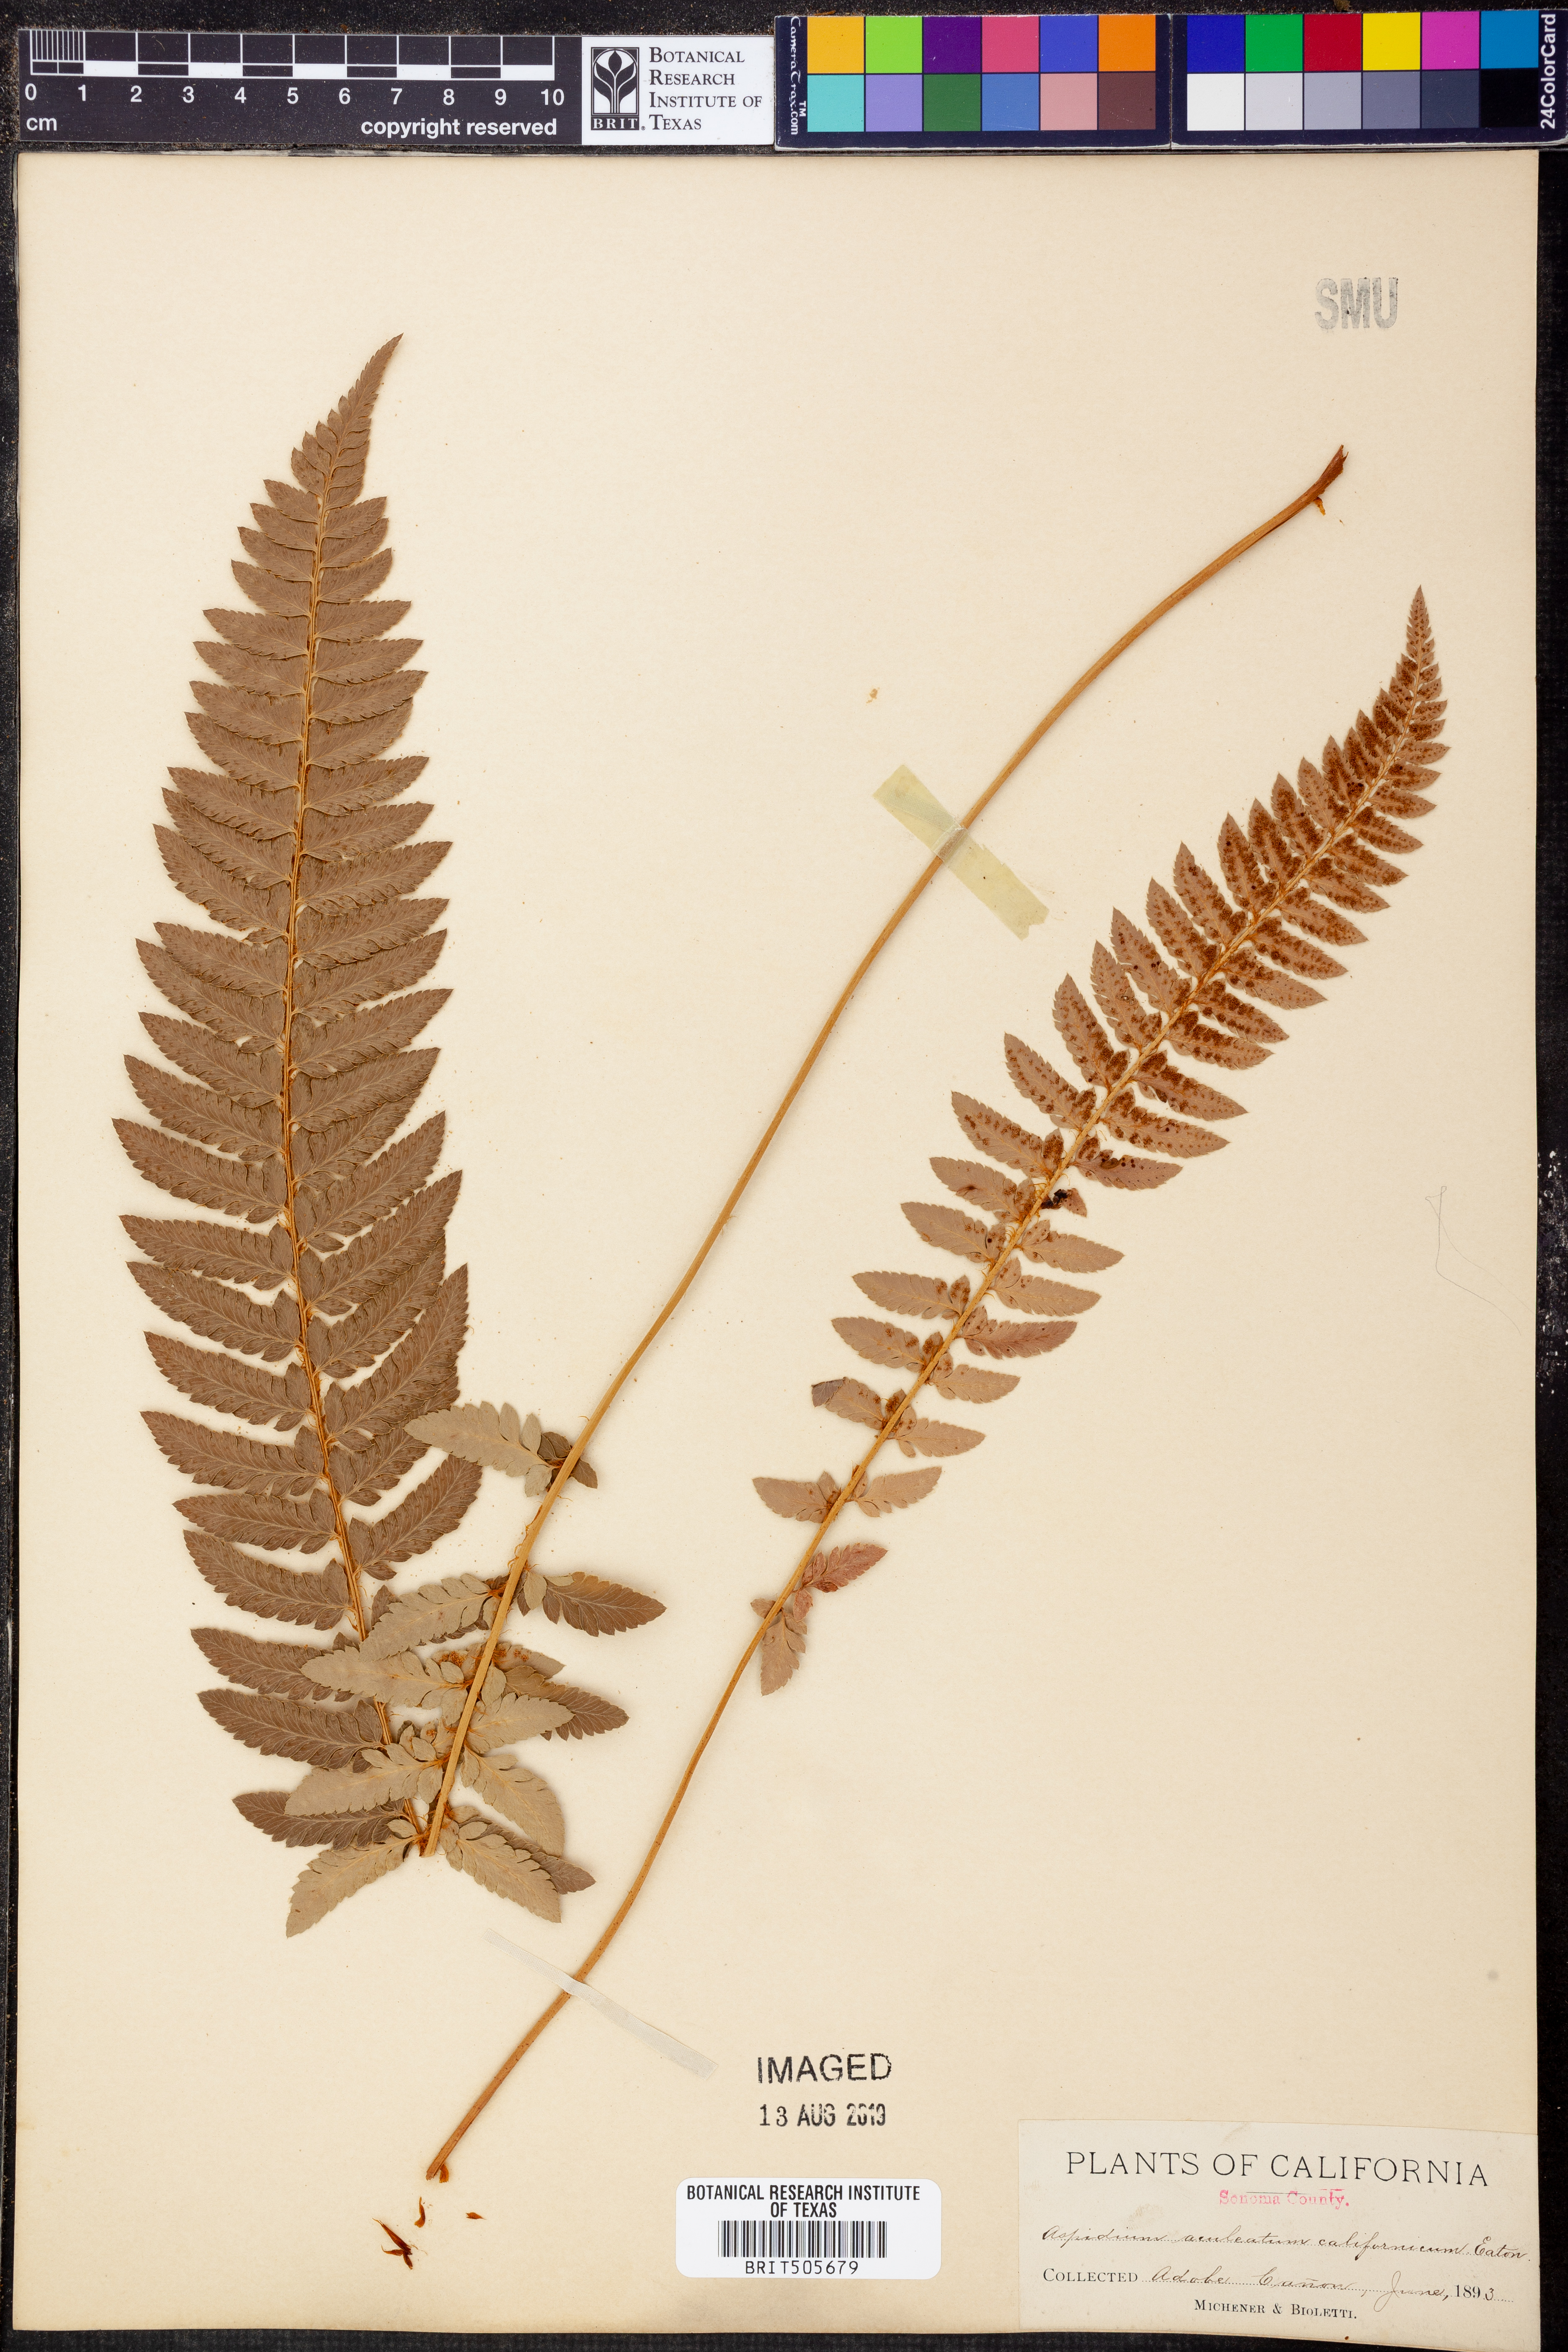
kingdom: Plantae
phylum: Tracheophyta
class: Polypodiopsida
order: Polypodiales
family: Dryopteridaceae
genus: Polystichum
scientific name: Polystichum aculeatum
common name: Hard shield-fern
